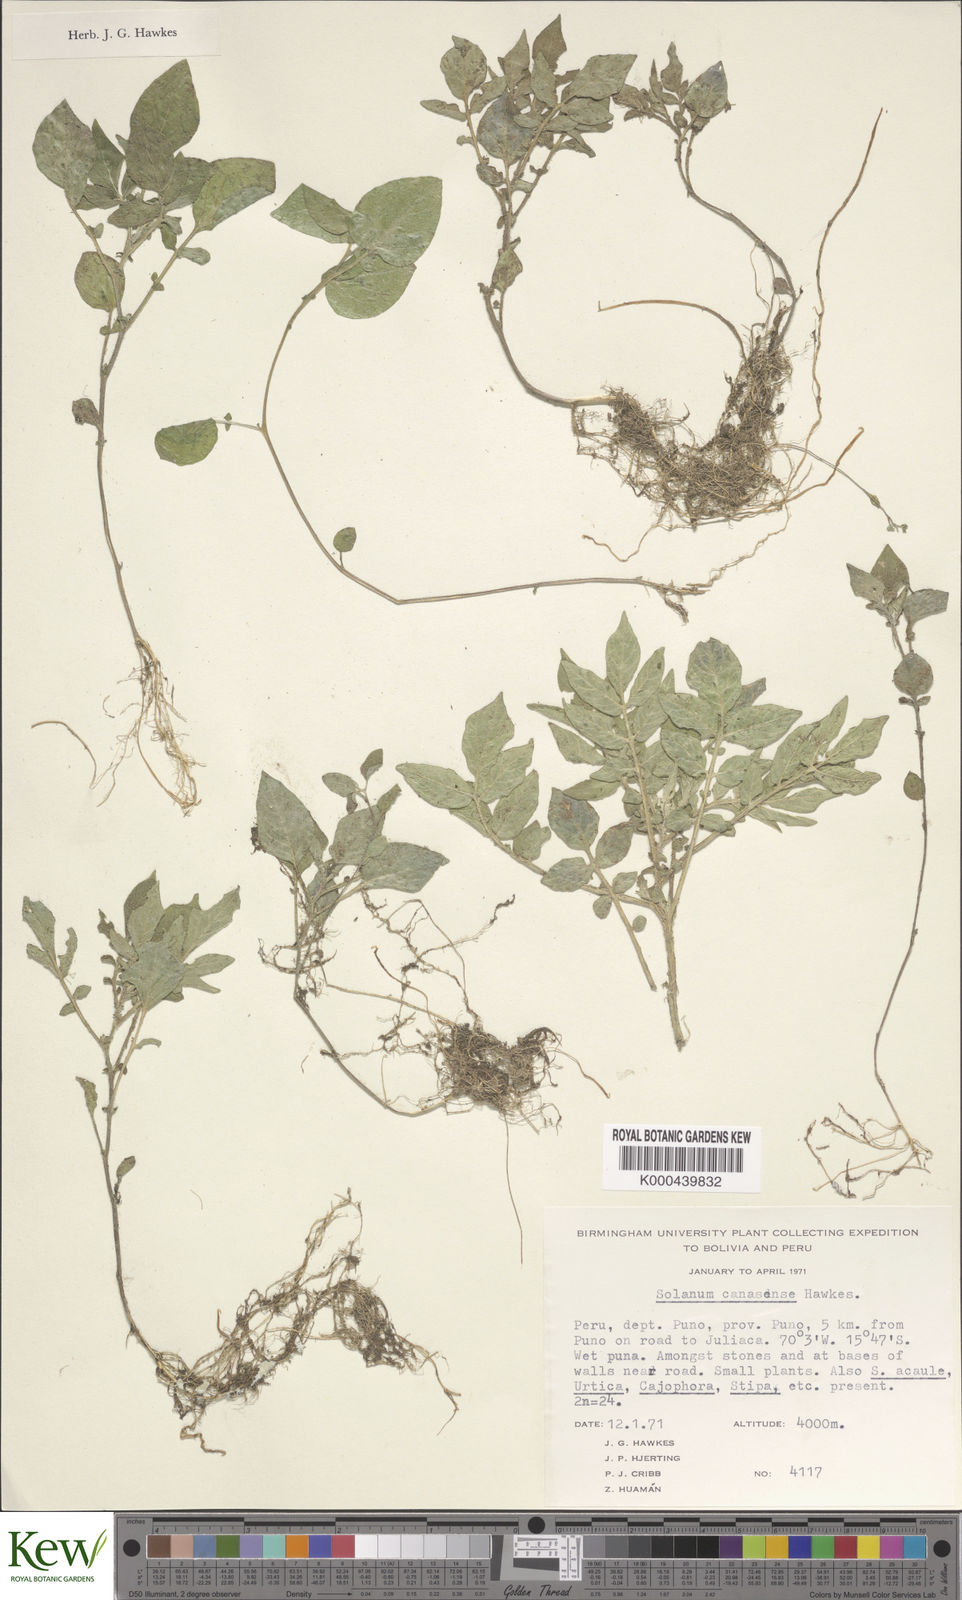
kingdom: Plantae
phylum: Tracheophyta
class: Magnoliopsida
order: Solanales
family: Solanaceae
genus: Solanum
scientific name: Solanum candolleanum
